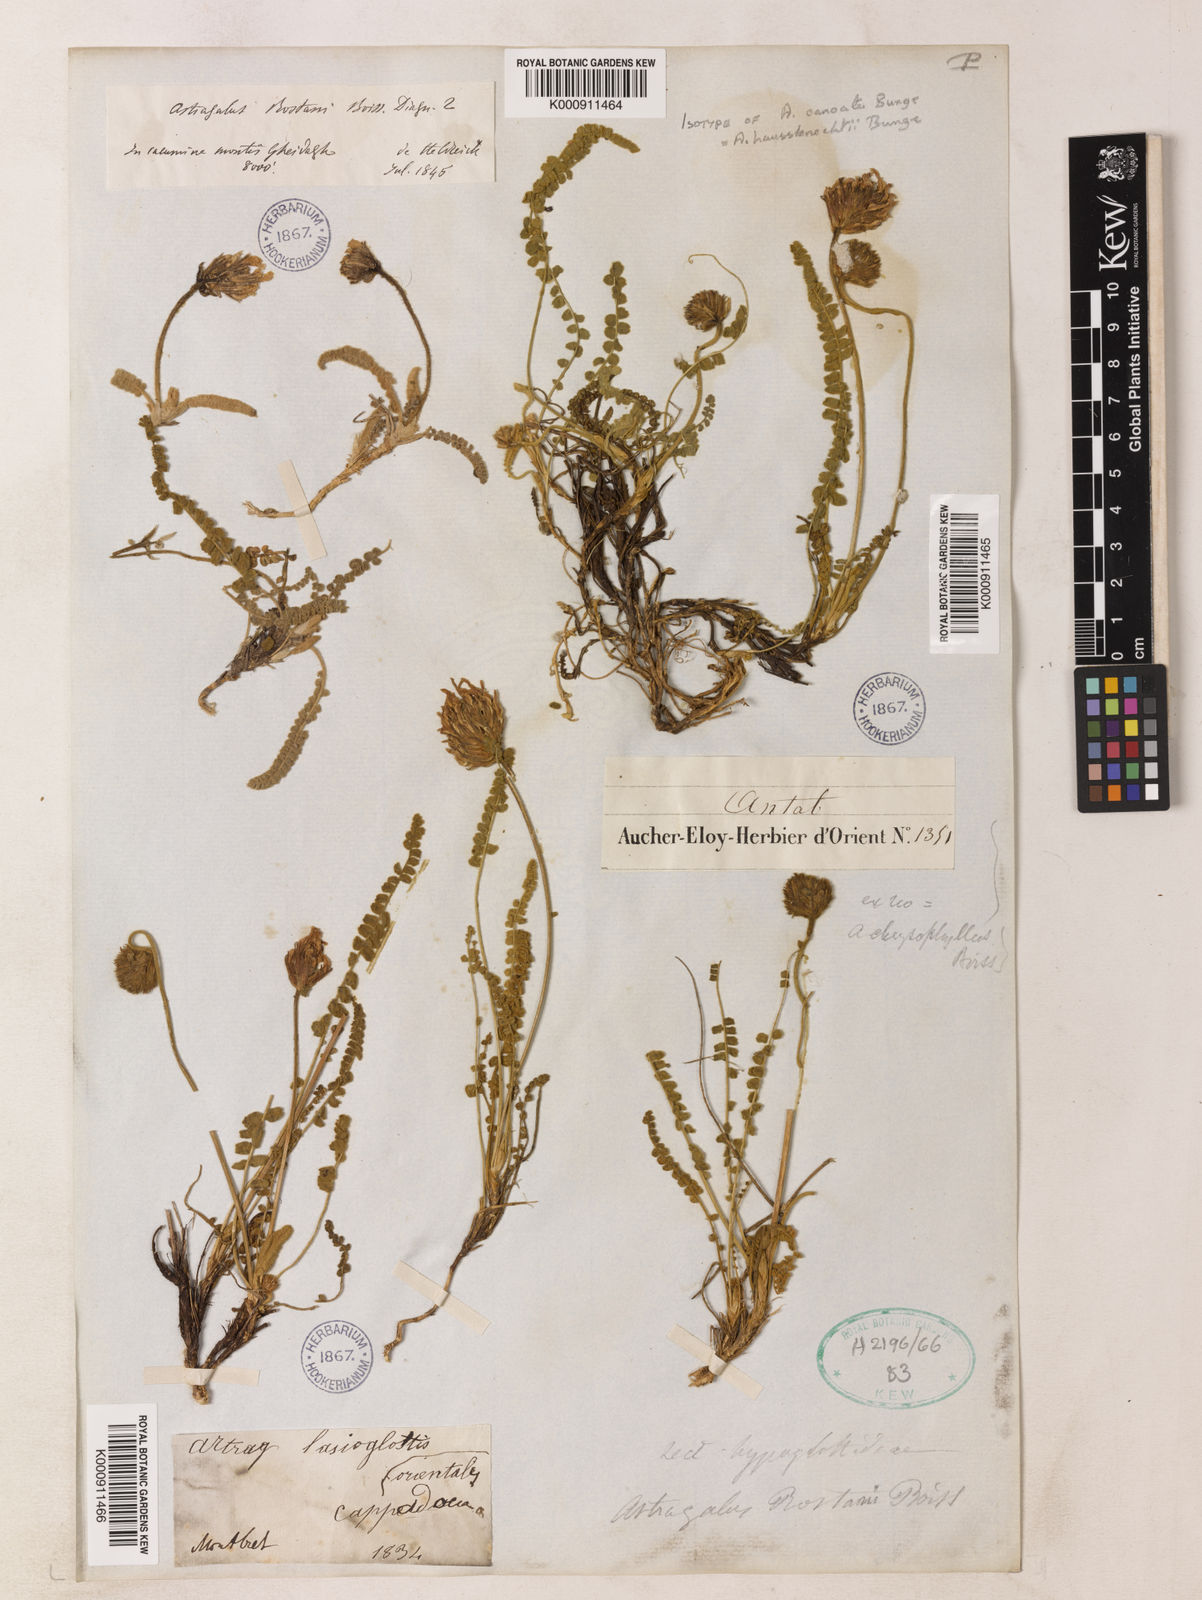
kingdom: Plantae
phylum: Tracheophyta
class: Magnoliopsida
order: Fabales
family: Fabaceae
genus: Astragalus
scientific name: Astragalus densifolius
